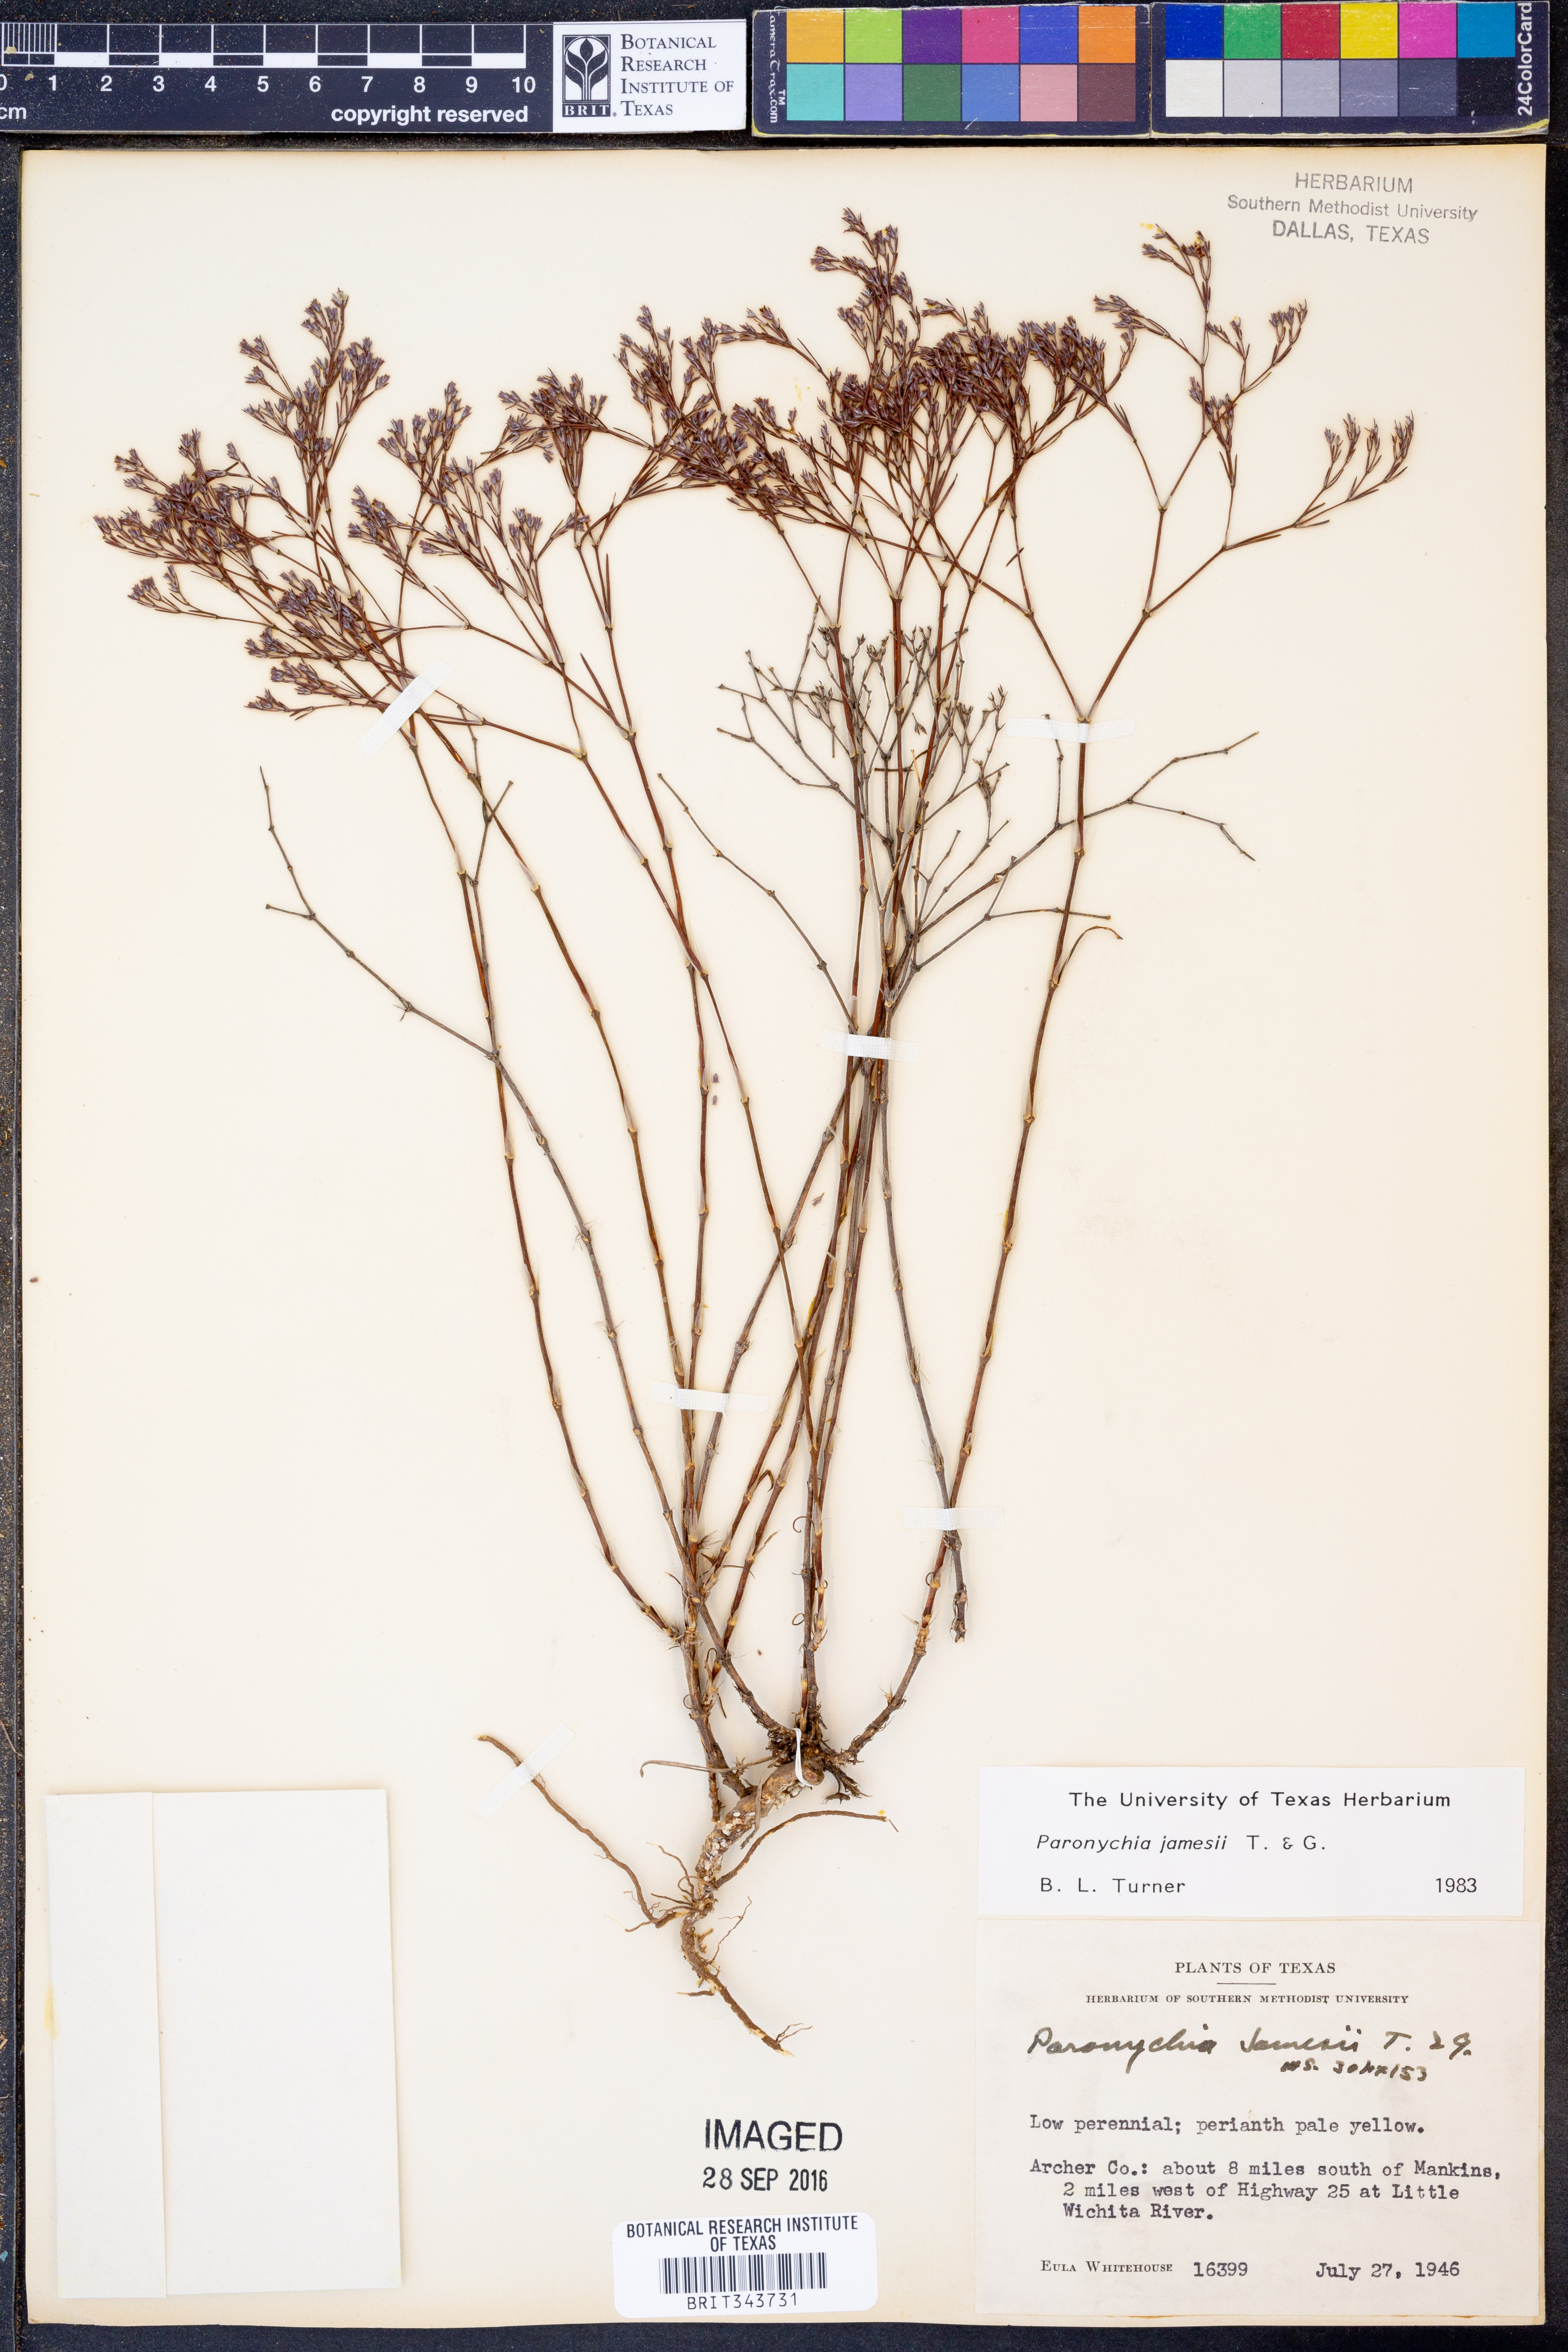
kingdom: Plantae
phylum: Tracheophyta
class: Magnoliopsida
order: Caryophyllales
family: Caryophyllaceae
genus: Paronychia
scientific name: Paronychia jamesii
